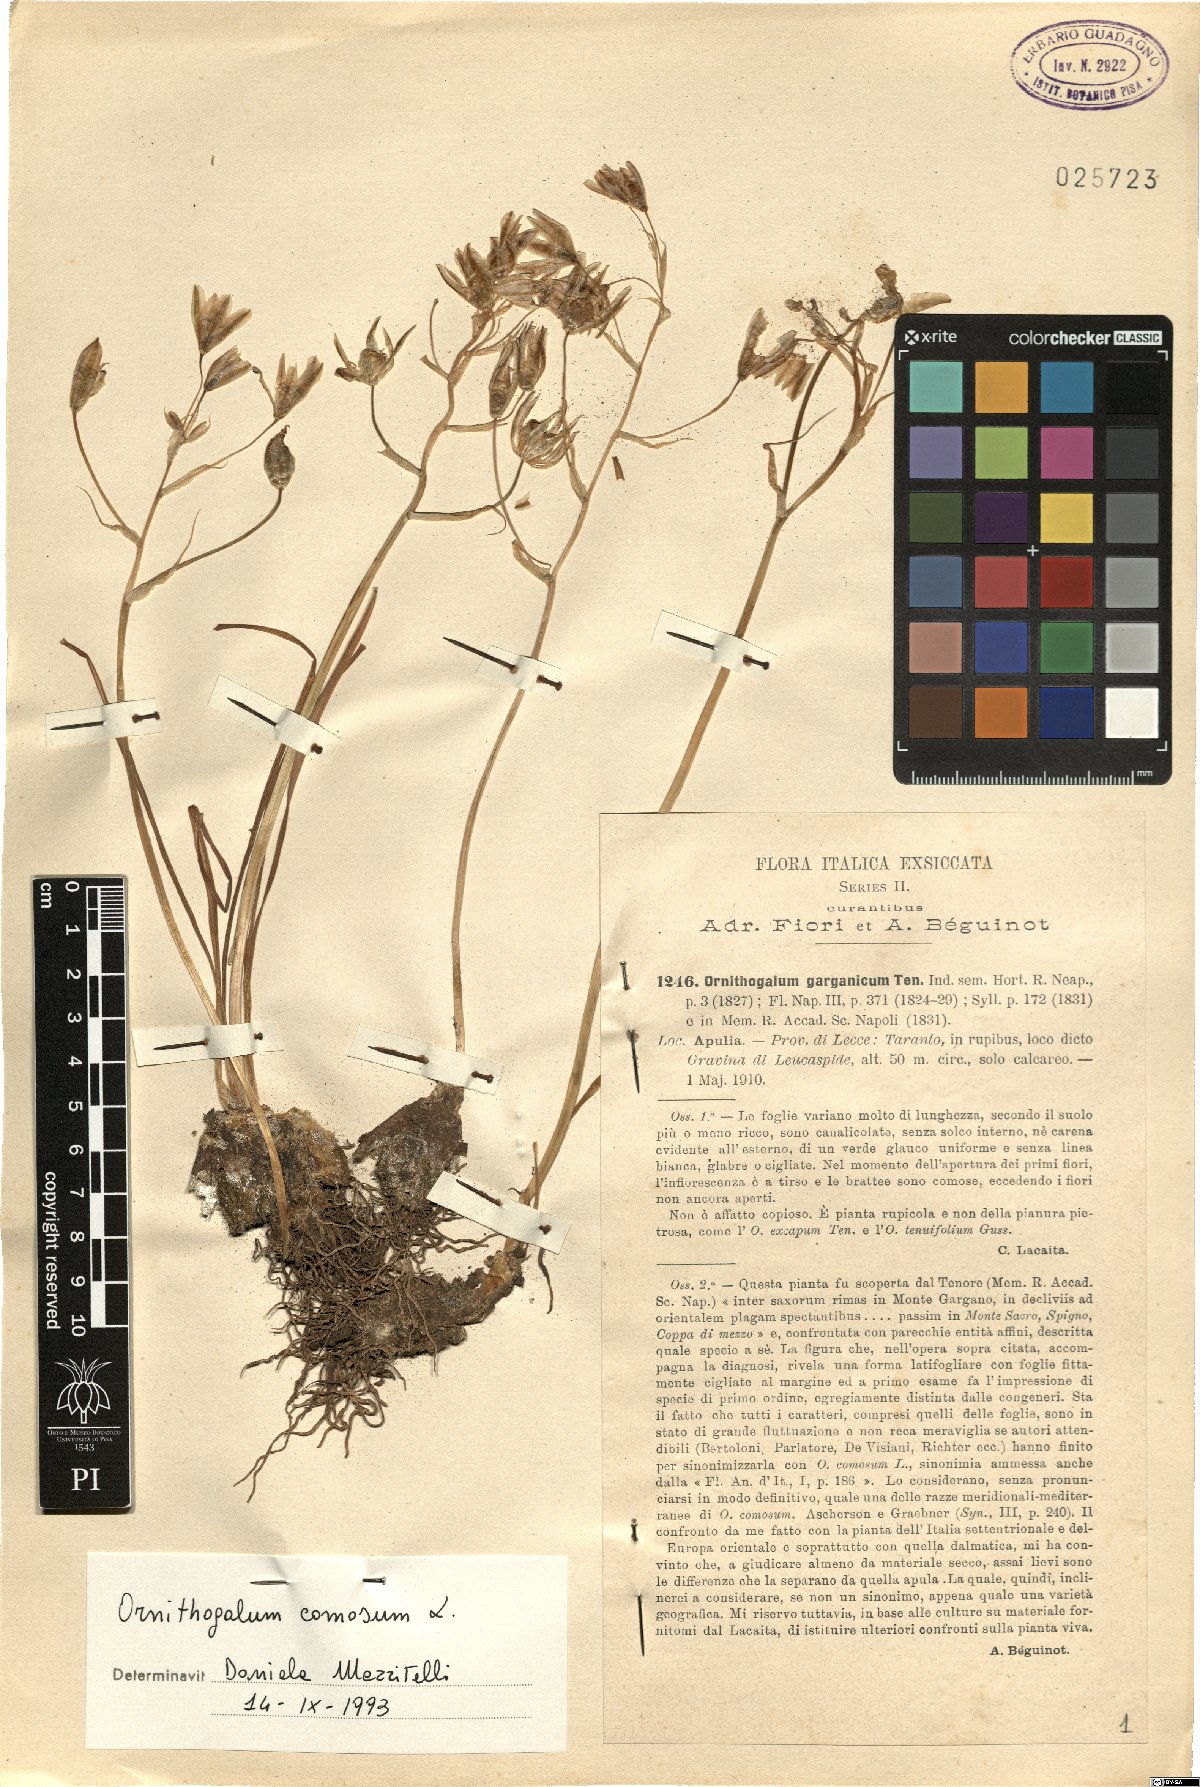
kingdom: Plantae
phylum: Tracheophyta
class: Liliopsida
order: Asparagales
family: Asparagaceae
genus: Ornithogalum
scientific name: Ornithogalum comosum
